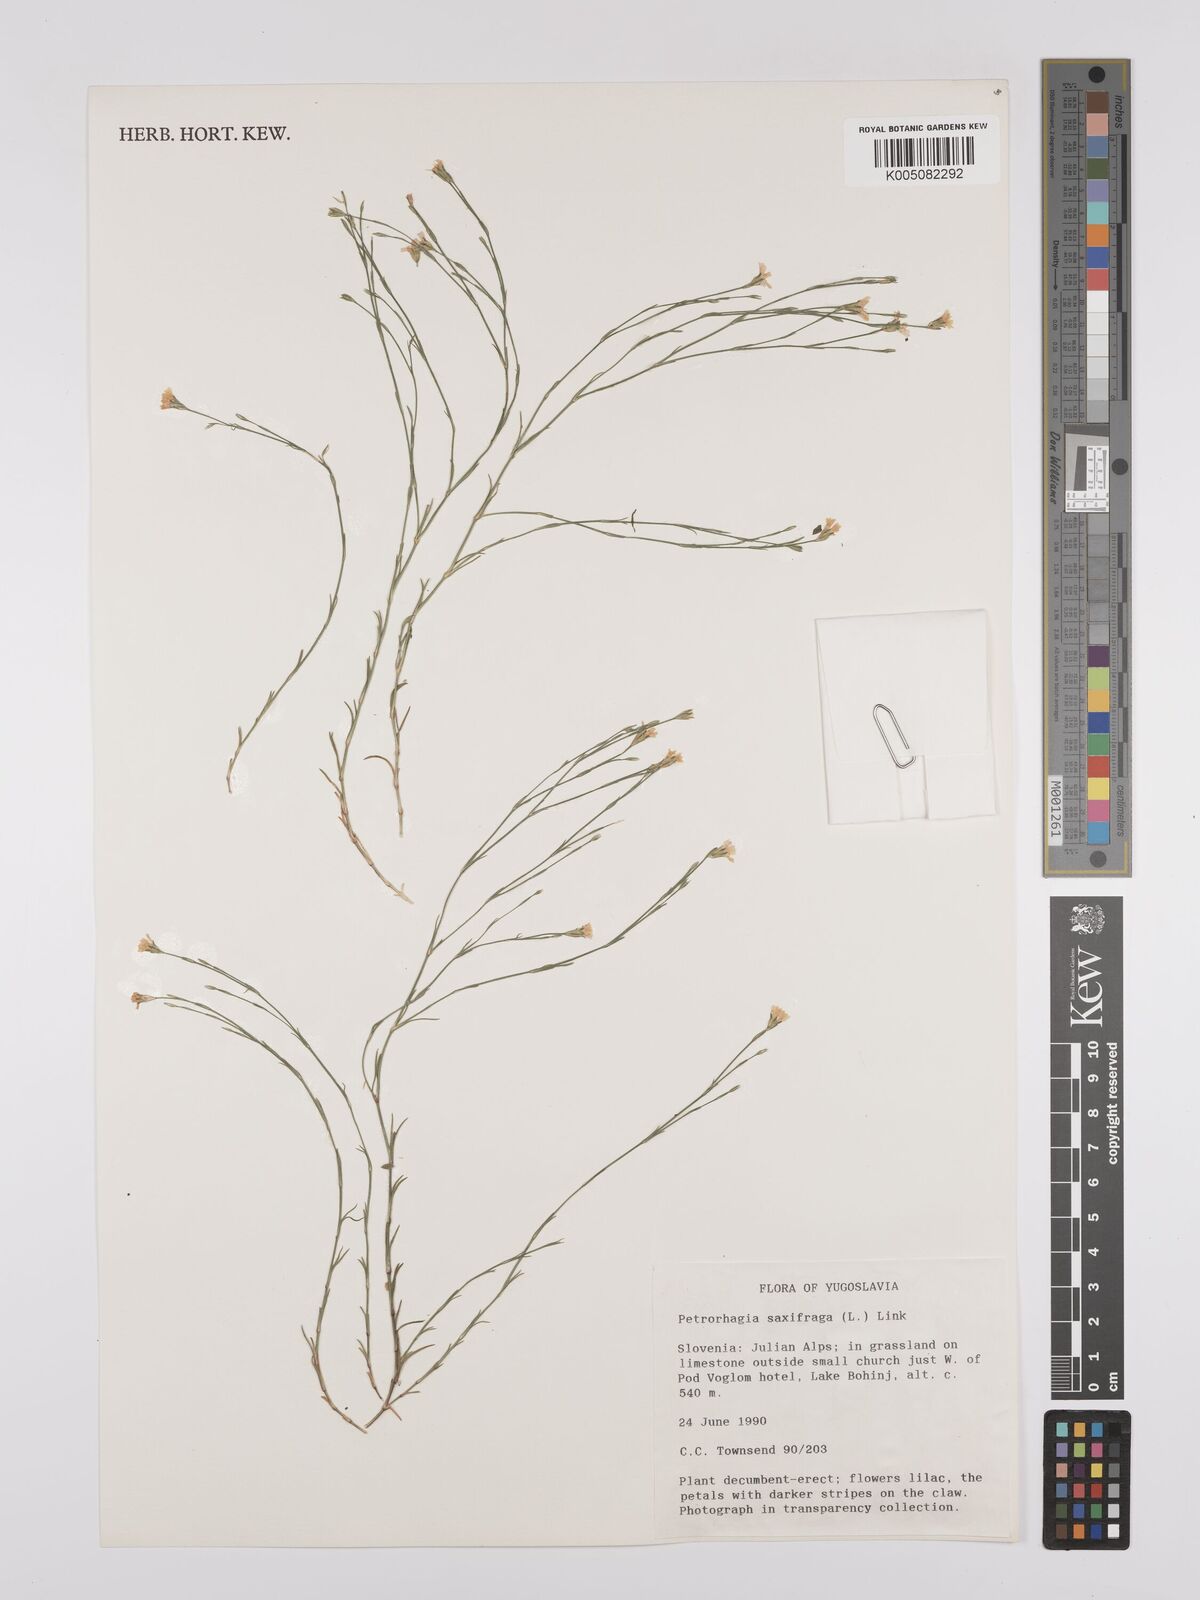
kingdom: Plantae
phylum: Tracheophyta
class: Magnoliopsida
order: Caryophyllales
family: Caryophyllaceae
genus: Petrorhagia
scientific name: Petrorhagia saxifraga
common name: Tunicflower
